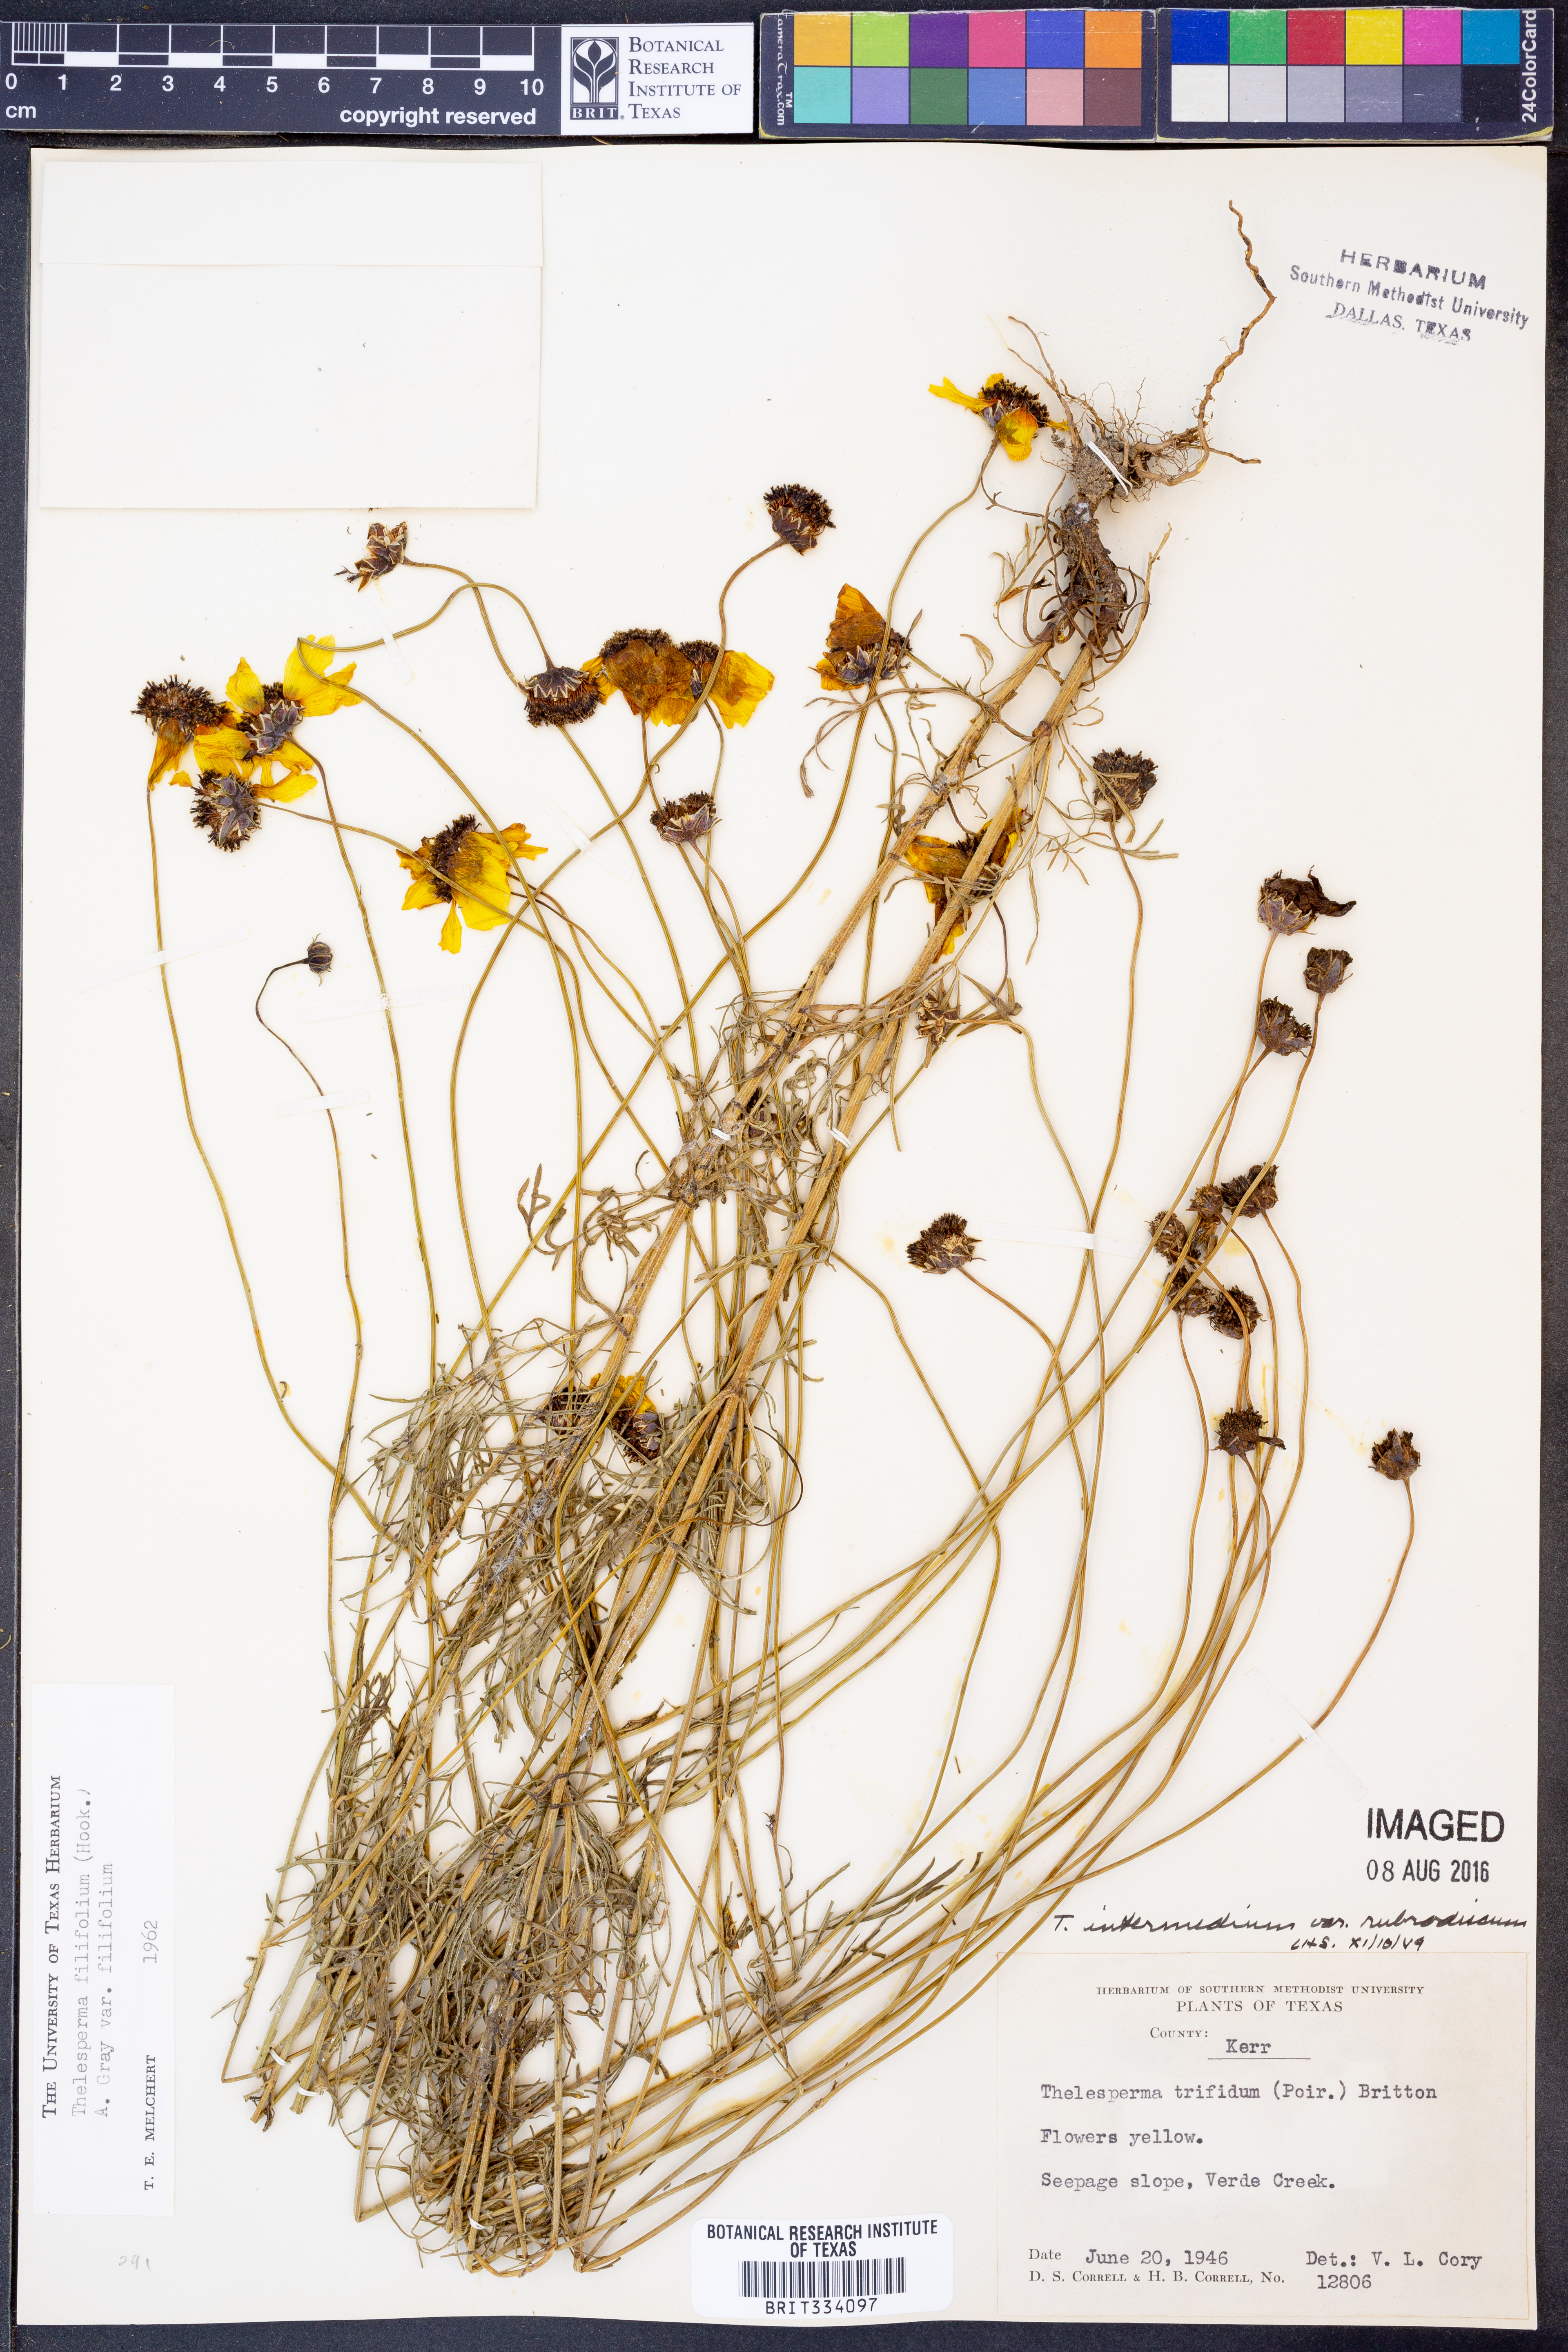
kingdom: Plantae
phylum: Tracheophyta
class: Magnoliopsida
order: Asterales
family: Asteraceae
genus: Thelesperma
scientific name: Thelesperma filifolium
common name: Stiff greenthread
